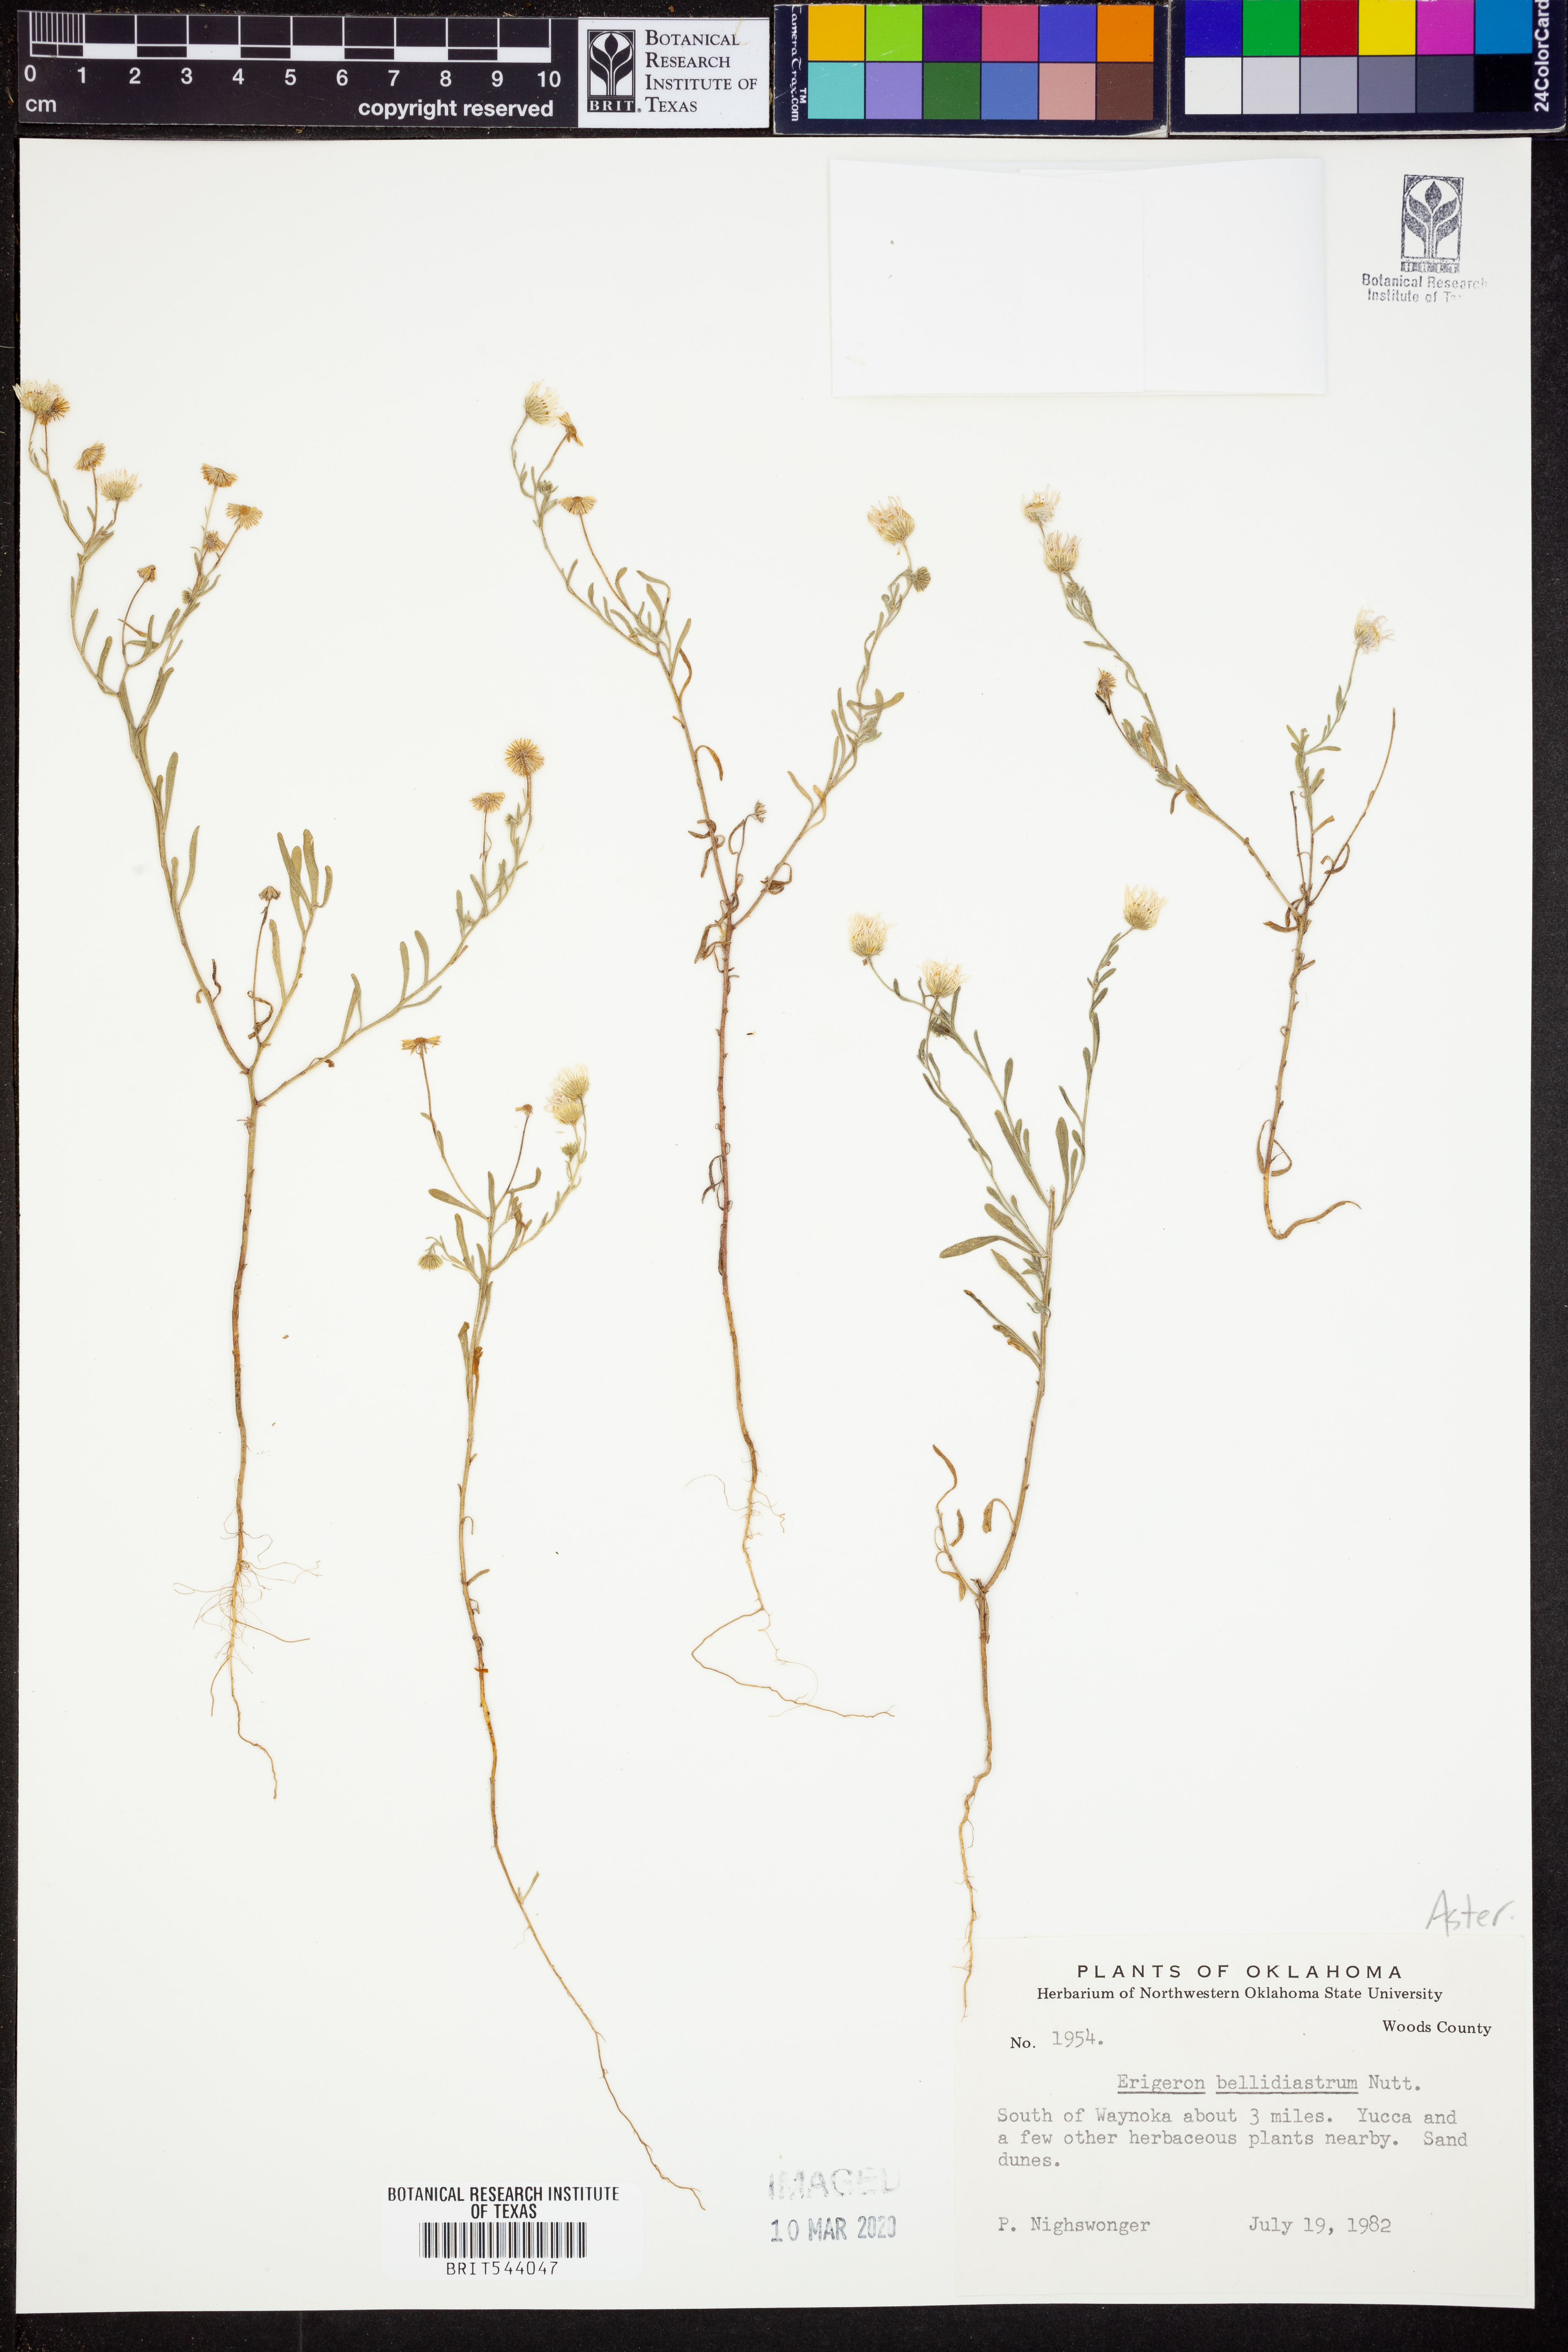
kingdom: Plantae
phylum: Tracheophyta
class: Magnoliopsida
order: Asterales
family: Asteraceae
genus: Erigeron
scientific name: Erigeron bellidiastrum
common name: Sand fleabane
